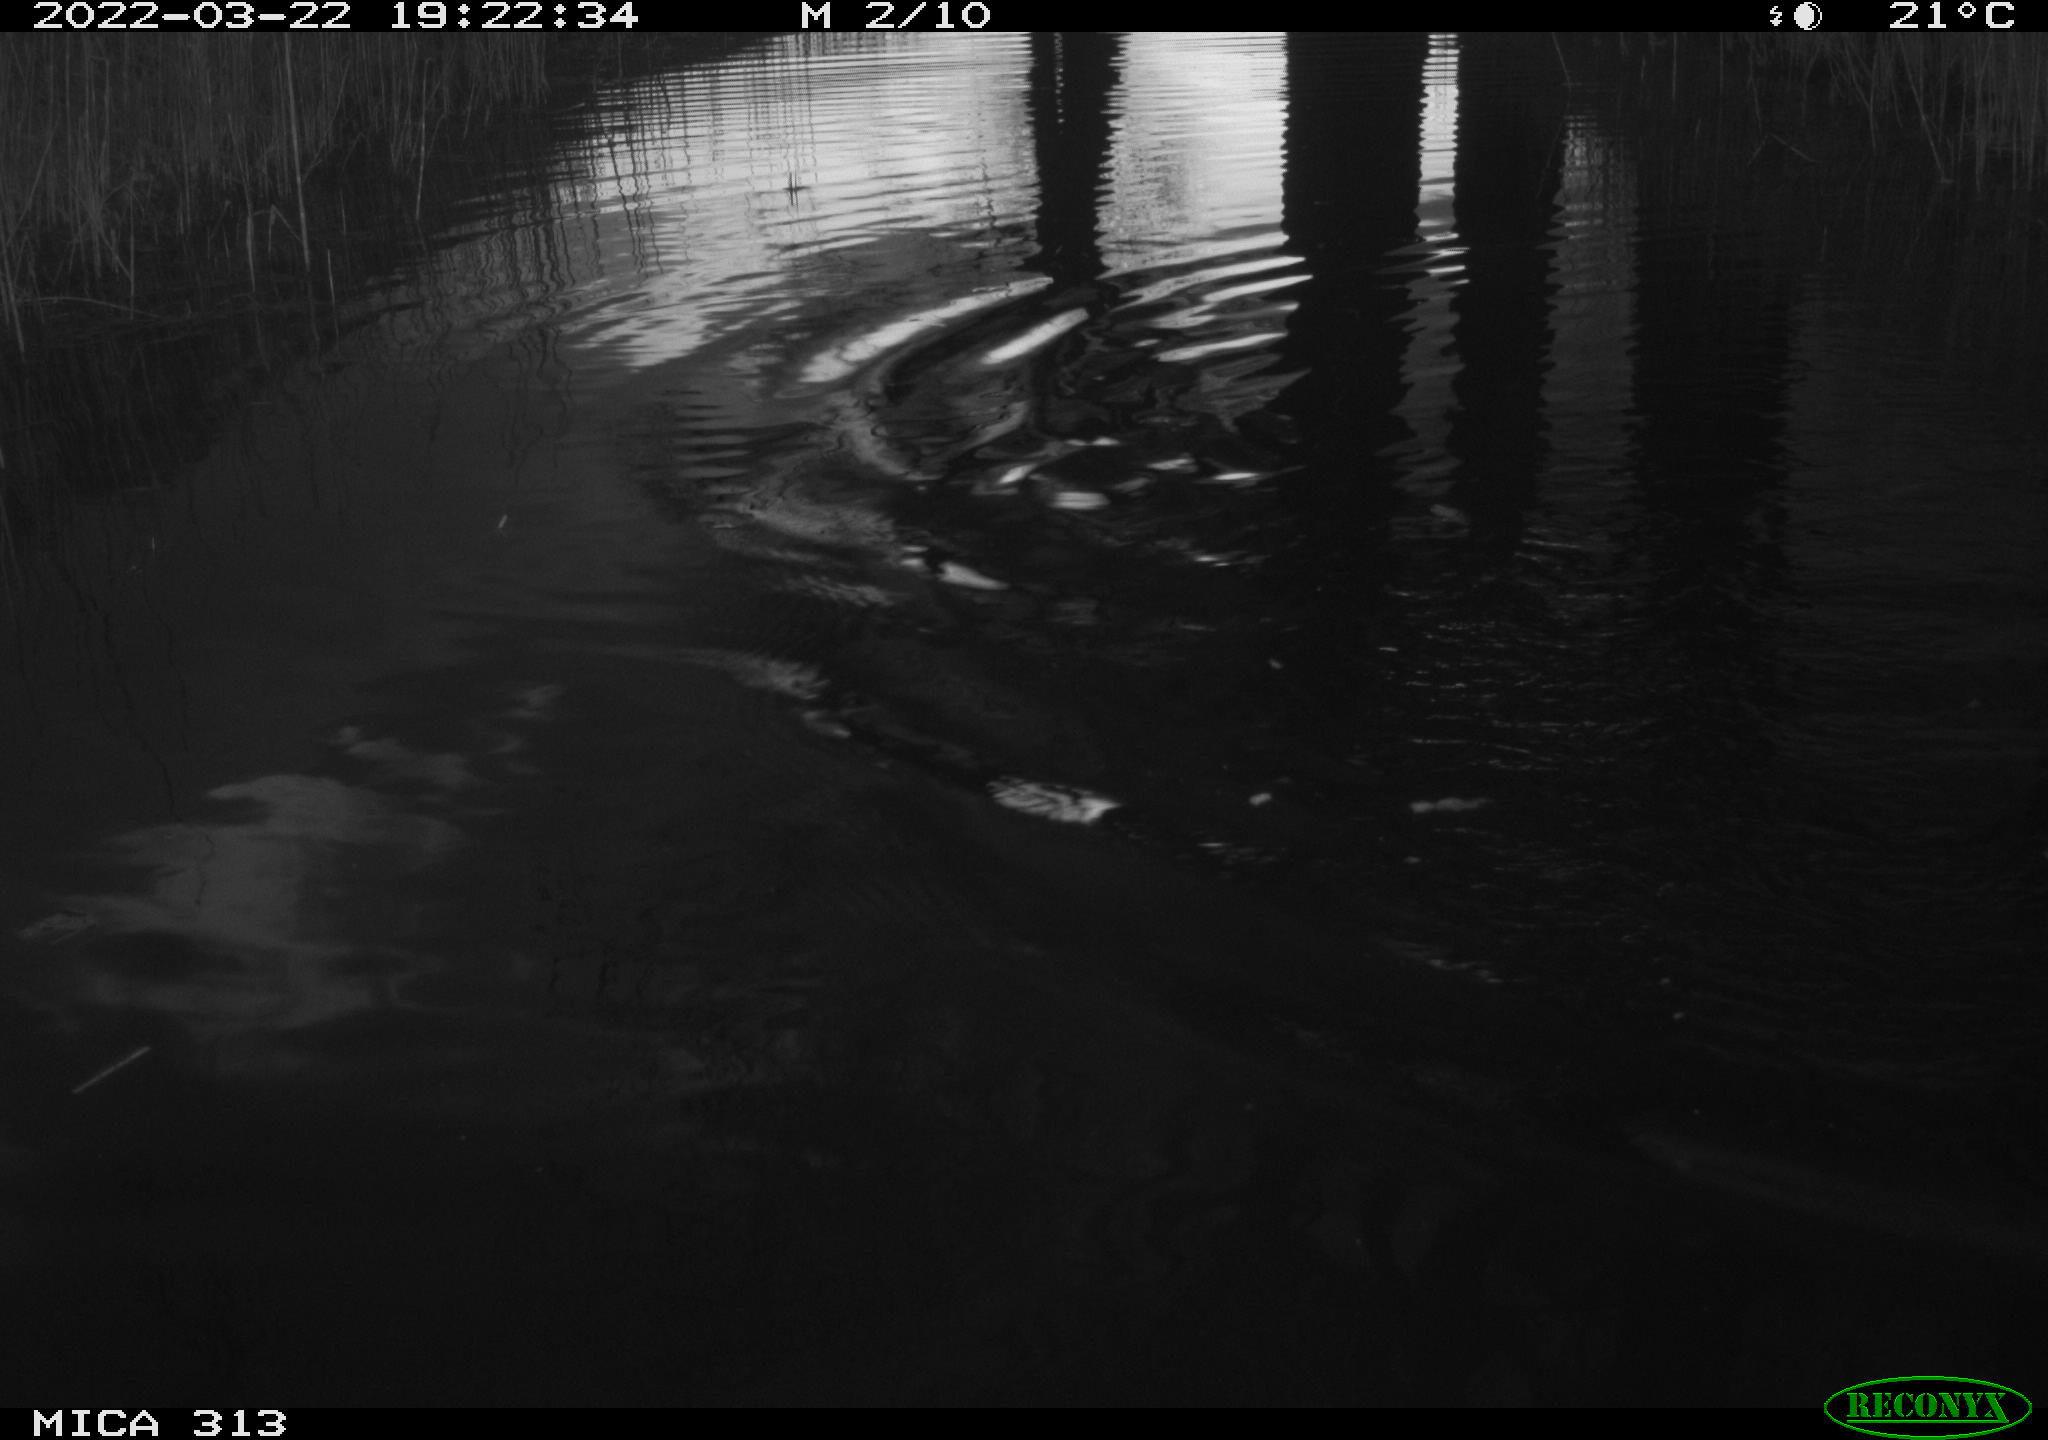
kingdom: Animalia
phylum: Chordata
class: Aves
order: Anseriformes
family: Anatidae
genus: Anas
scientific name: Anas platyrhynchos
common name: Mallard
